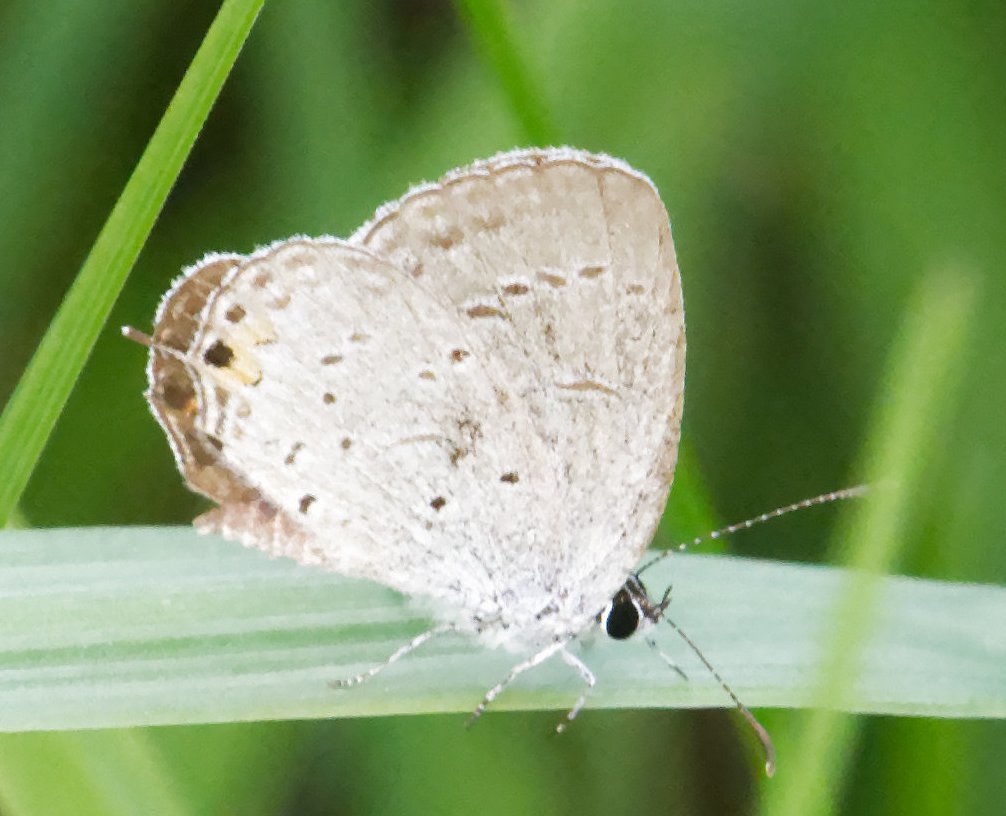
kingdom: Animalia
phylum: Arthropoda
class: Insecta
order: Lepidoptera
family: Lycaenidae
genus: Elkalyce
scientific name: Elkalyce comyntas
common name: Eastern Tailed-Blue
